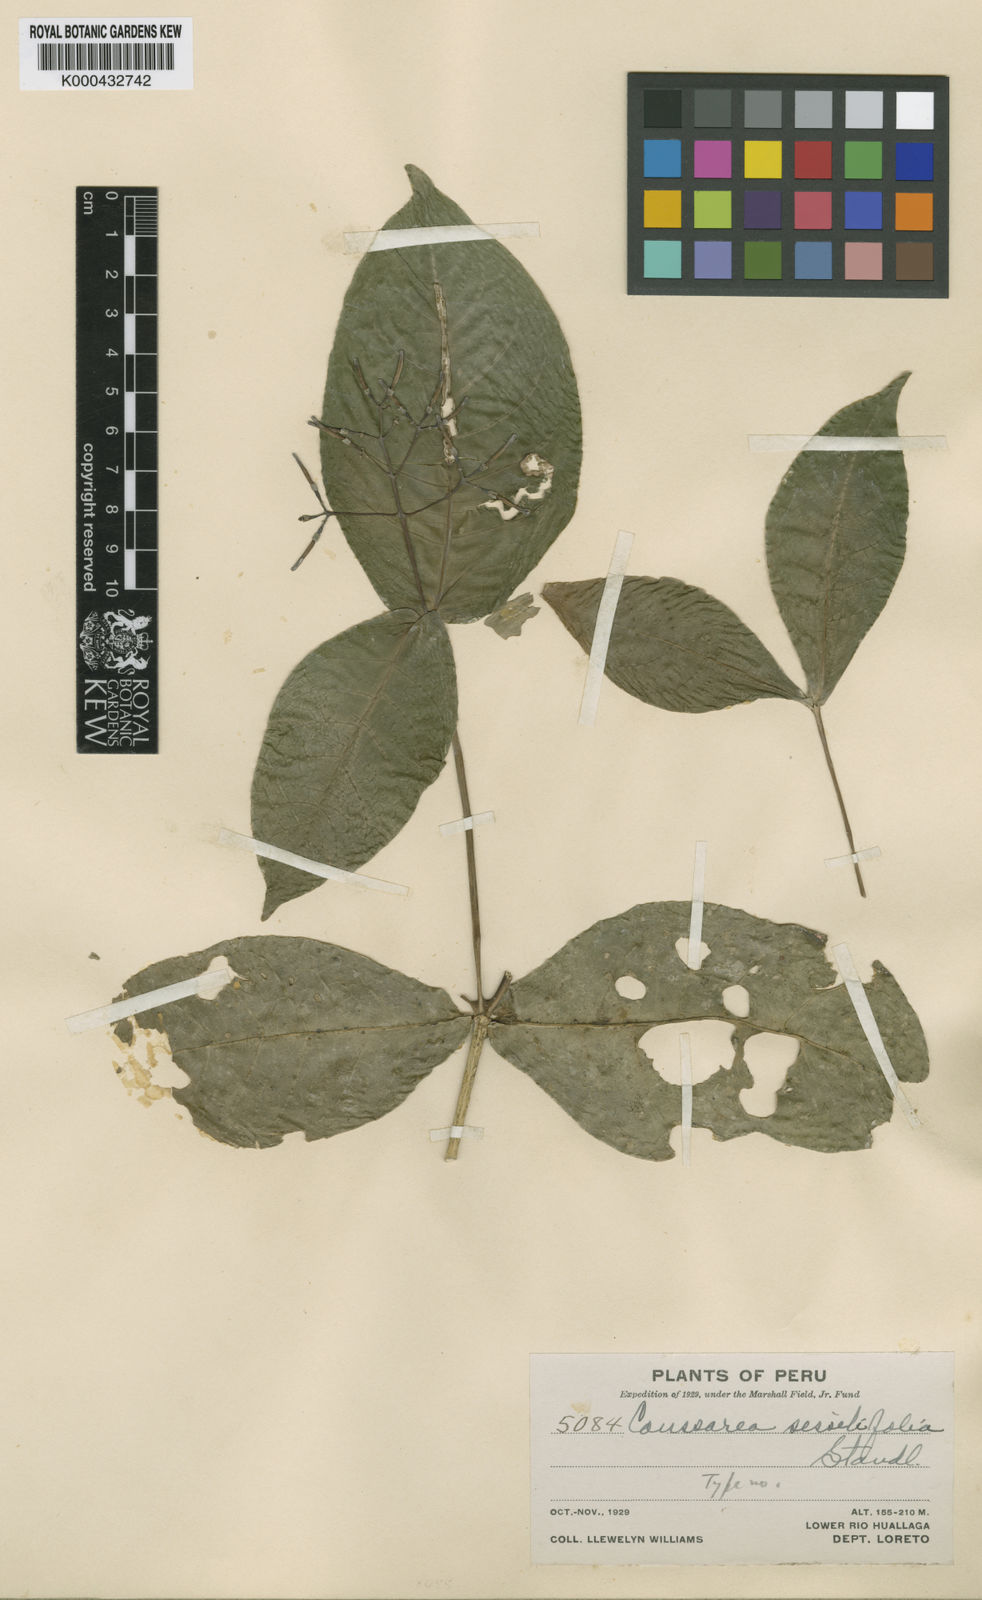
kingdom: Plantae
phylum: Tracheophyta
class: Magnoliopsida
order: Gentianales
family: Rubiaceae
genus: Coussarea
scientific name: Coussarea sessilifolia
